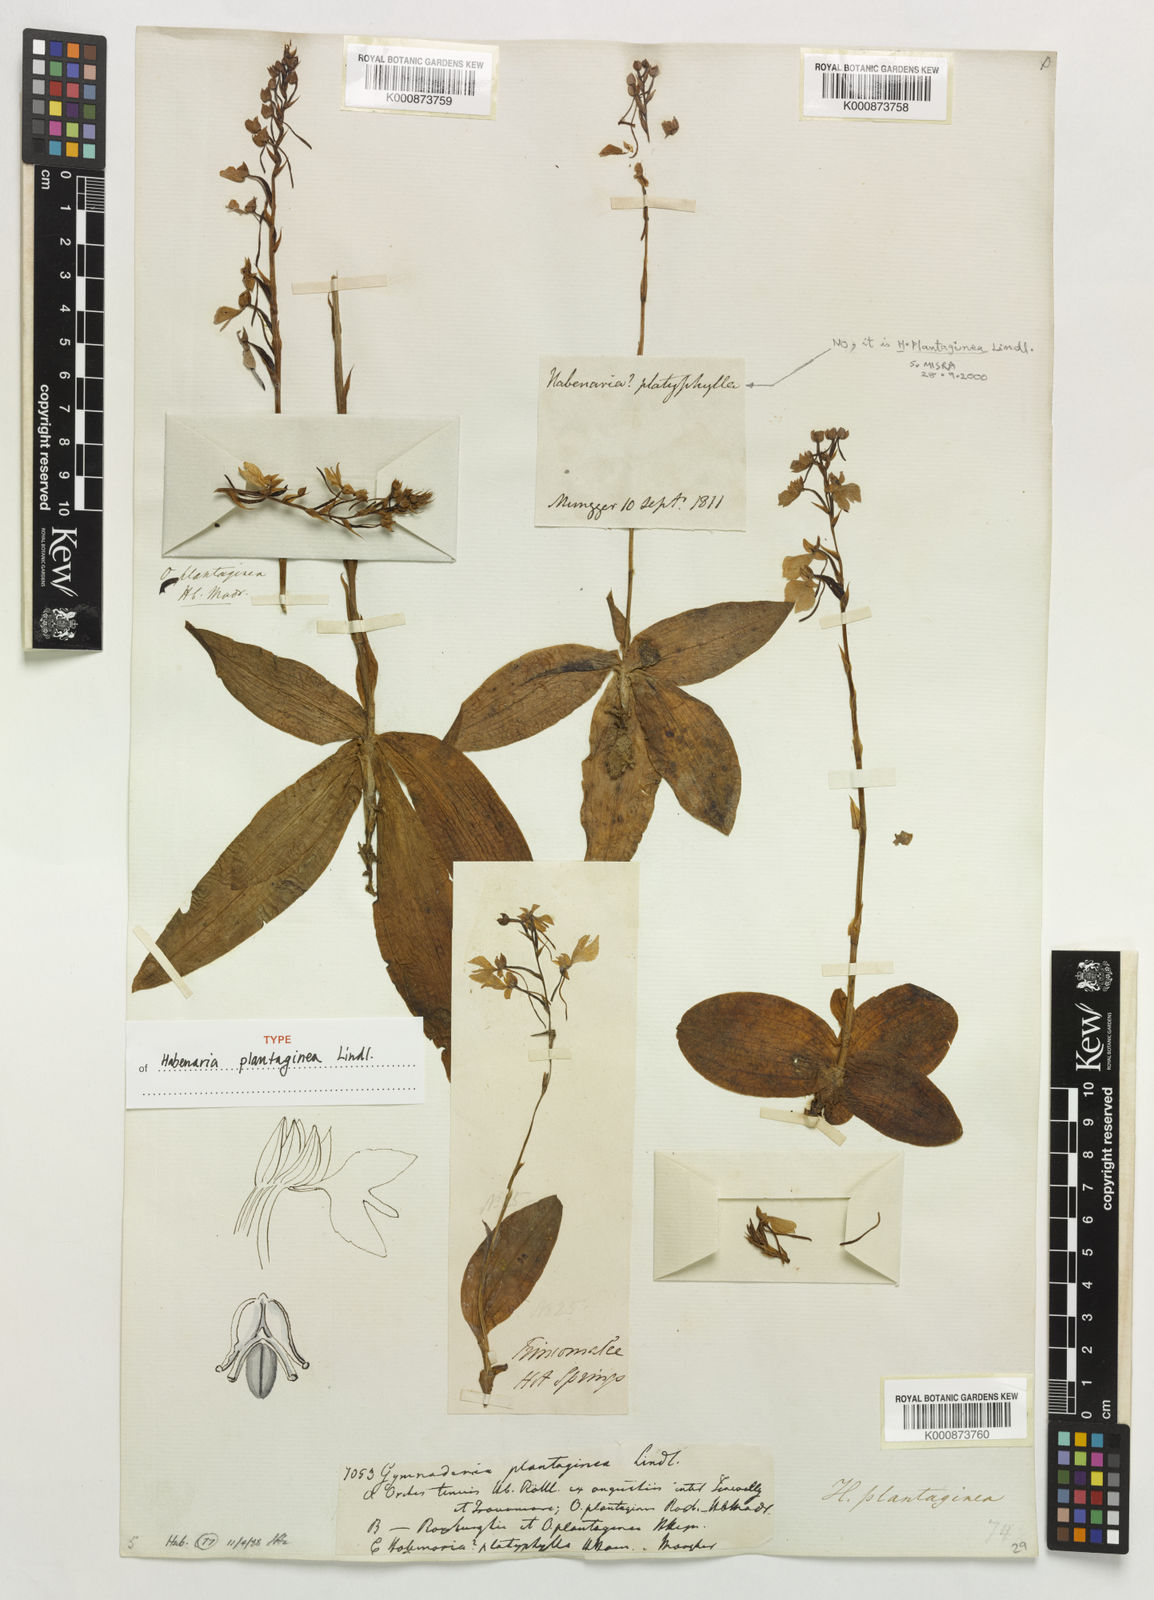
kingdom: Plantae
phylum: Tracheophyta
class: Liliopsida
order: Asparagales
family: Orchidaceae
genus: Habenaria
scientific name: Habenaria plantaginea
